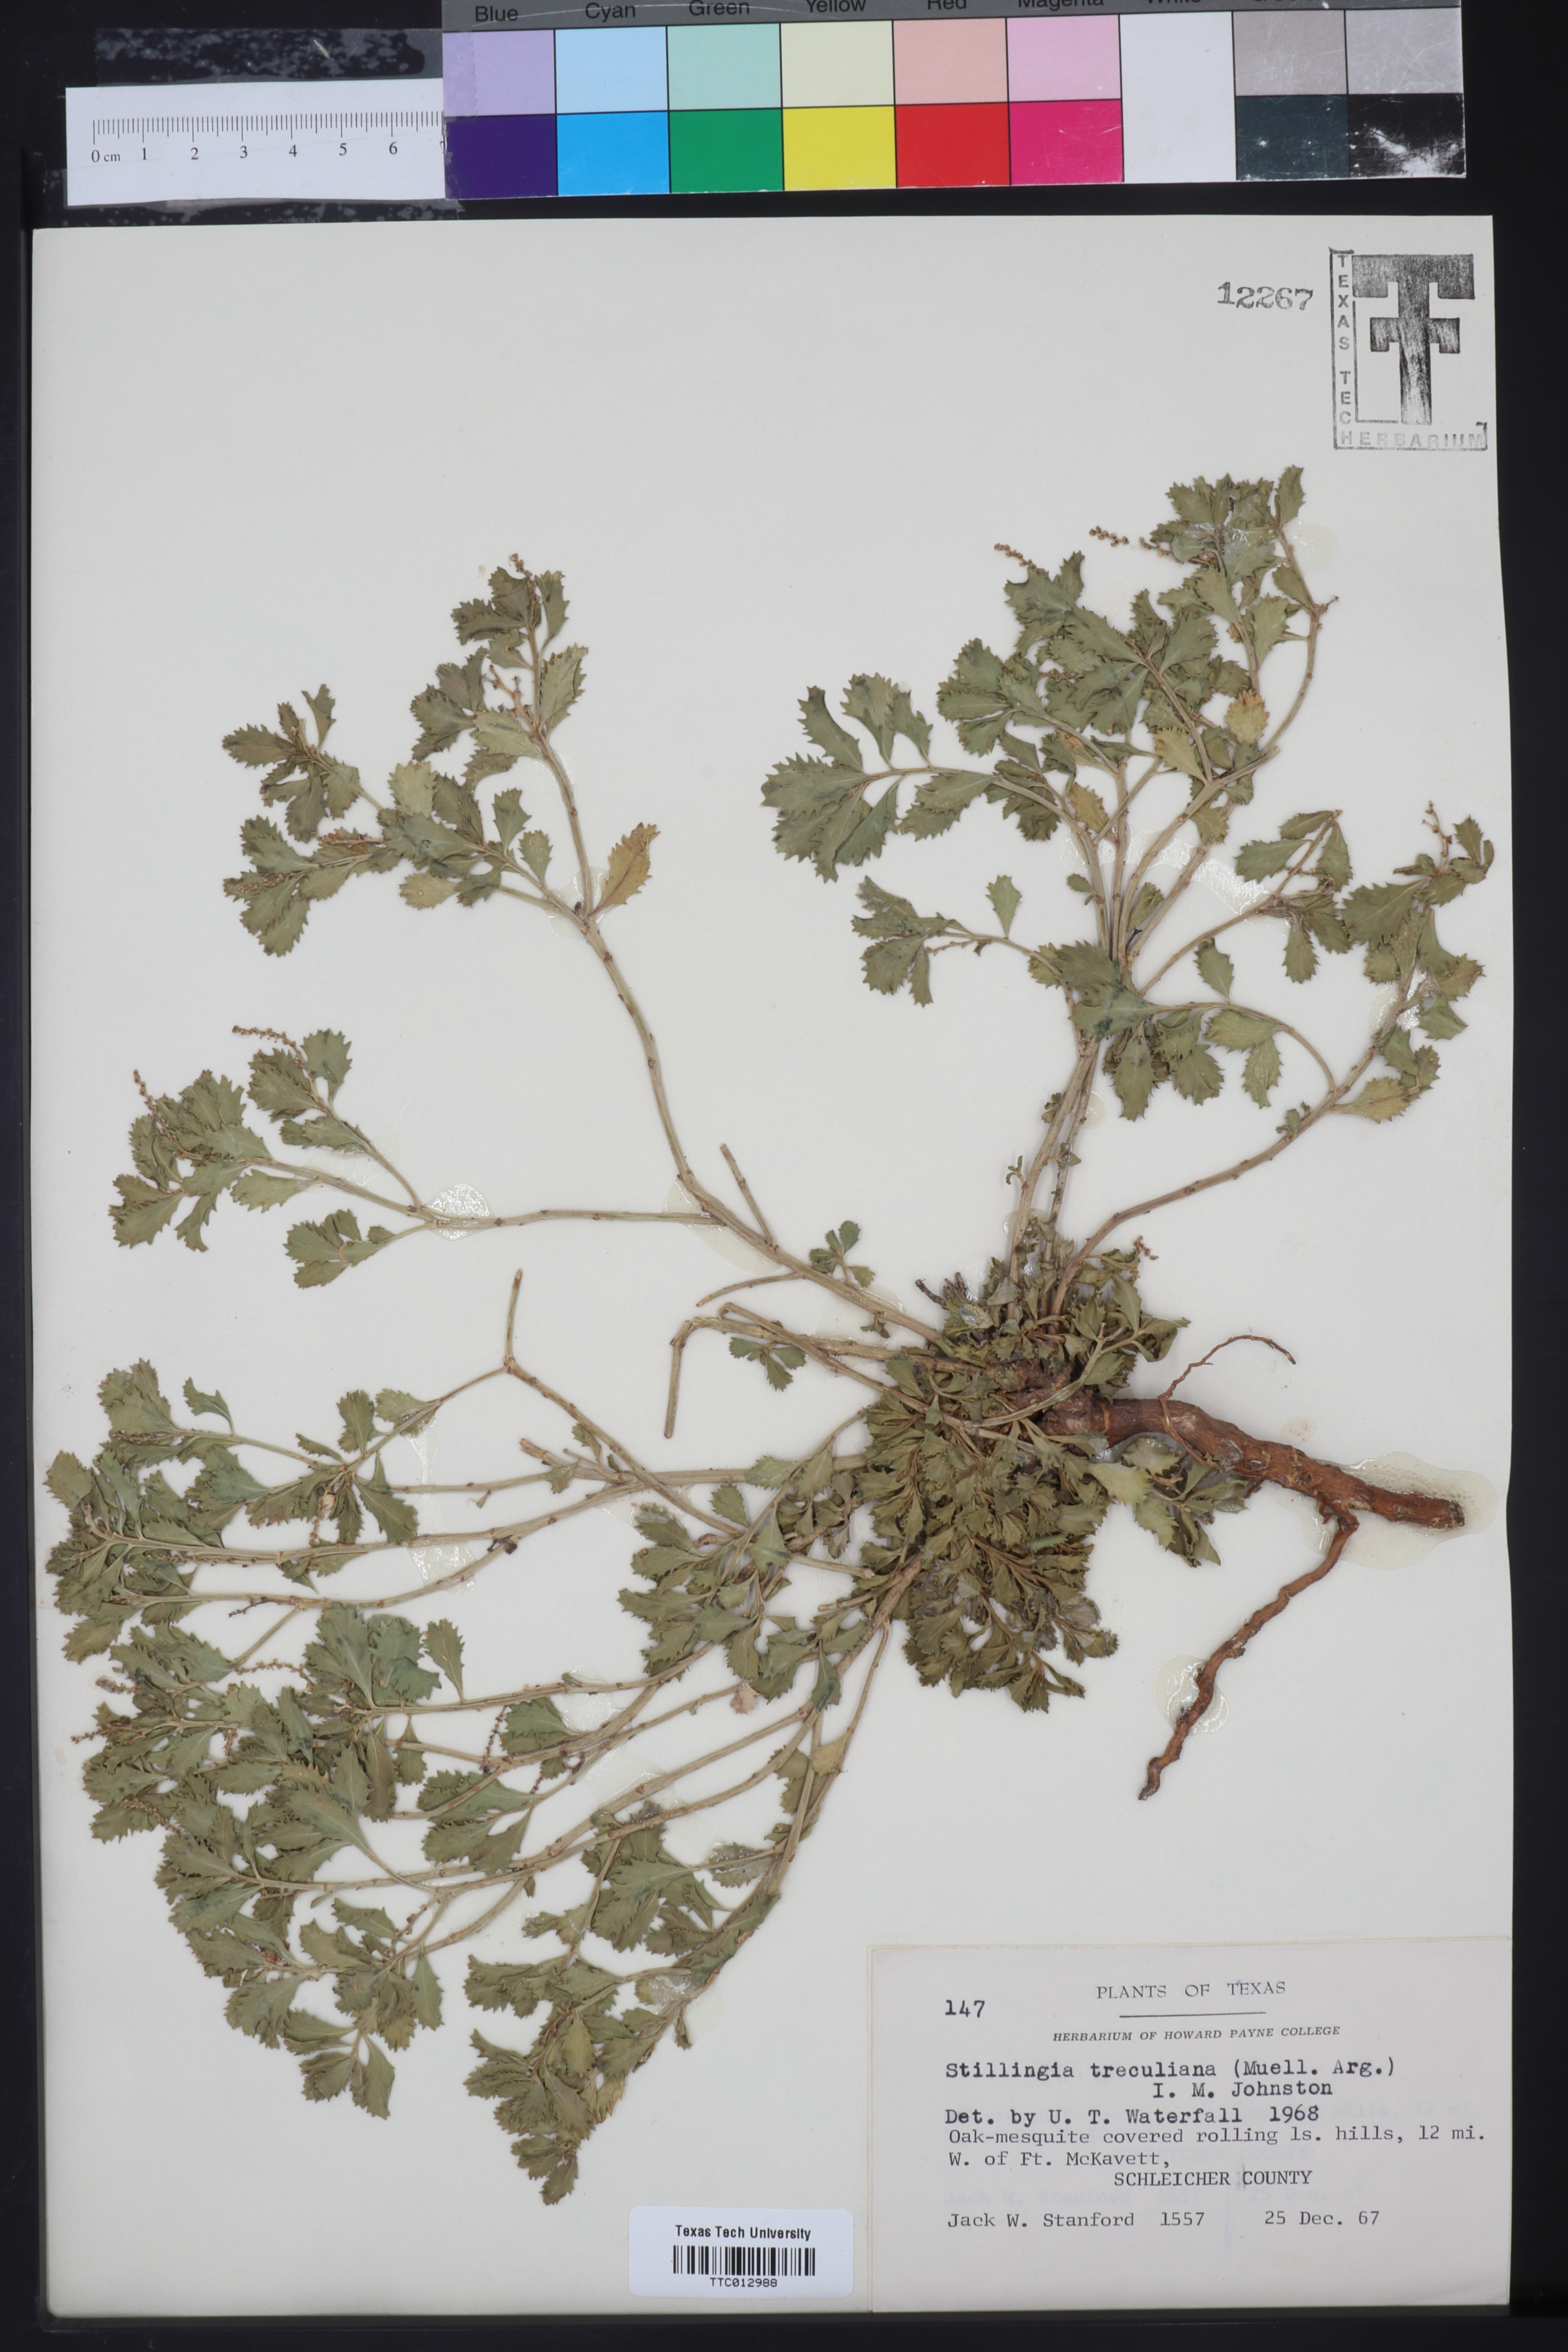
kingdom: Plantae
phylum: Tracheophyta
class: Magnoliopsida
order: Malpighiales
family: Euphorbiaceae
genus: Stillingia
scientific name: Stillingia treculiana
